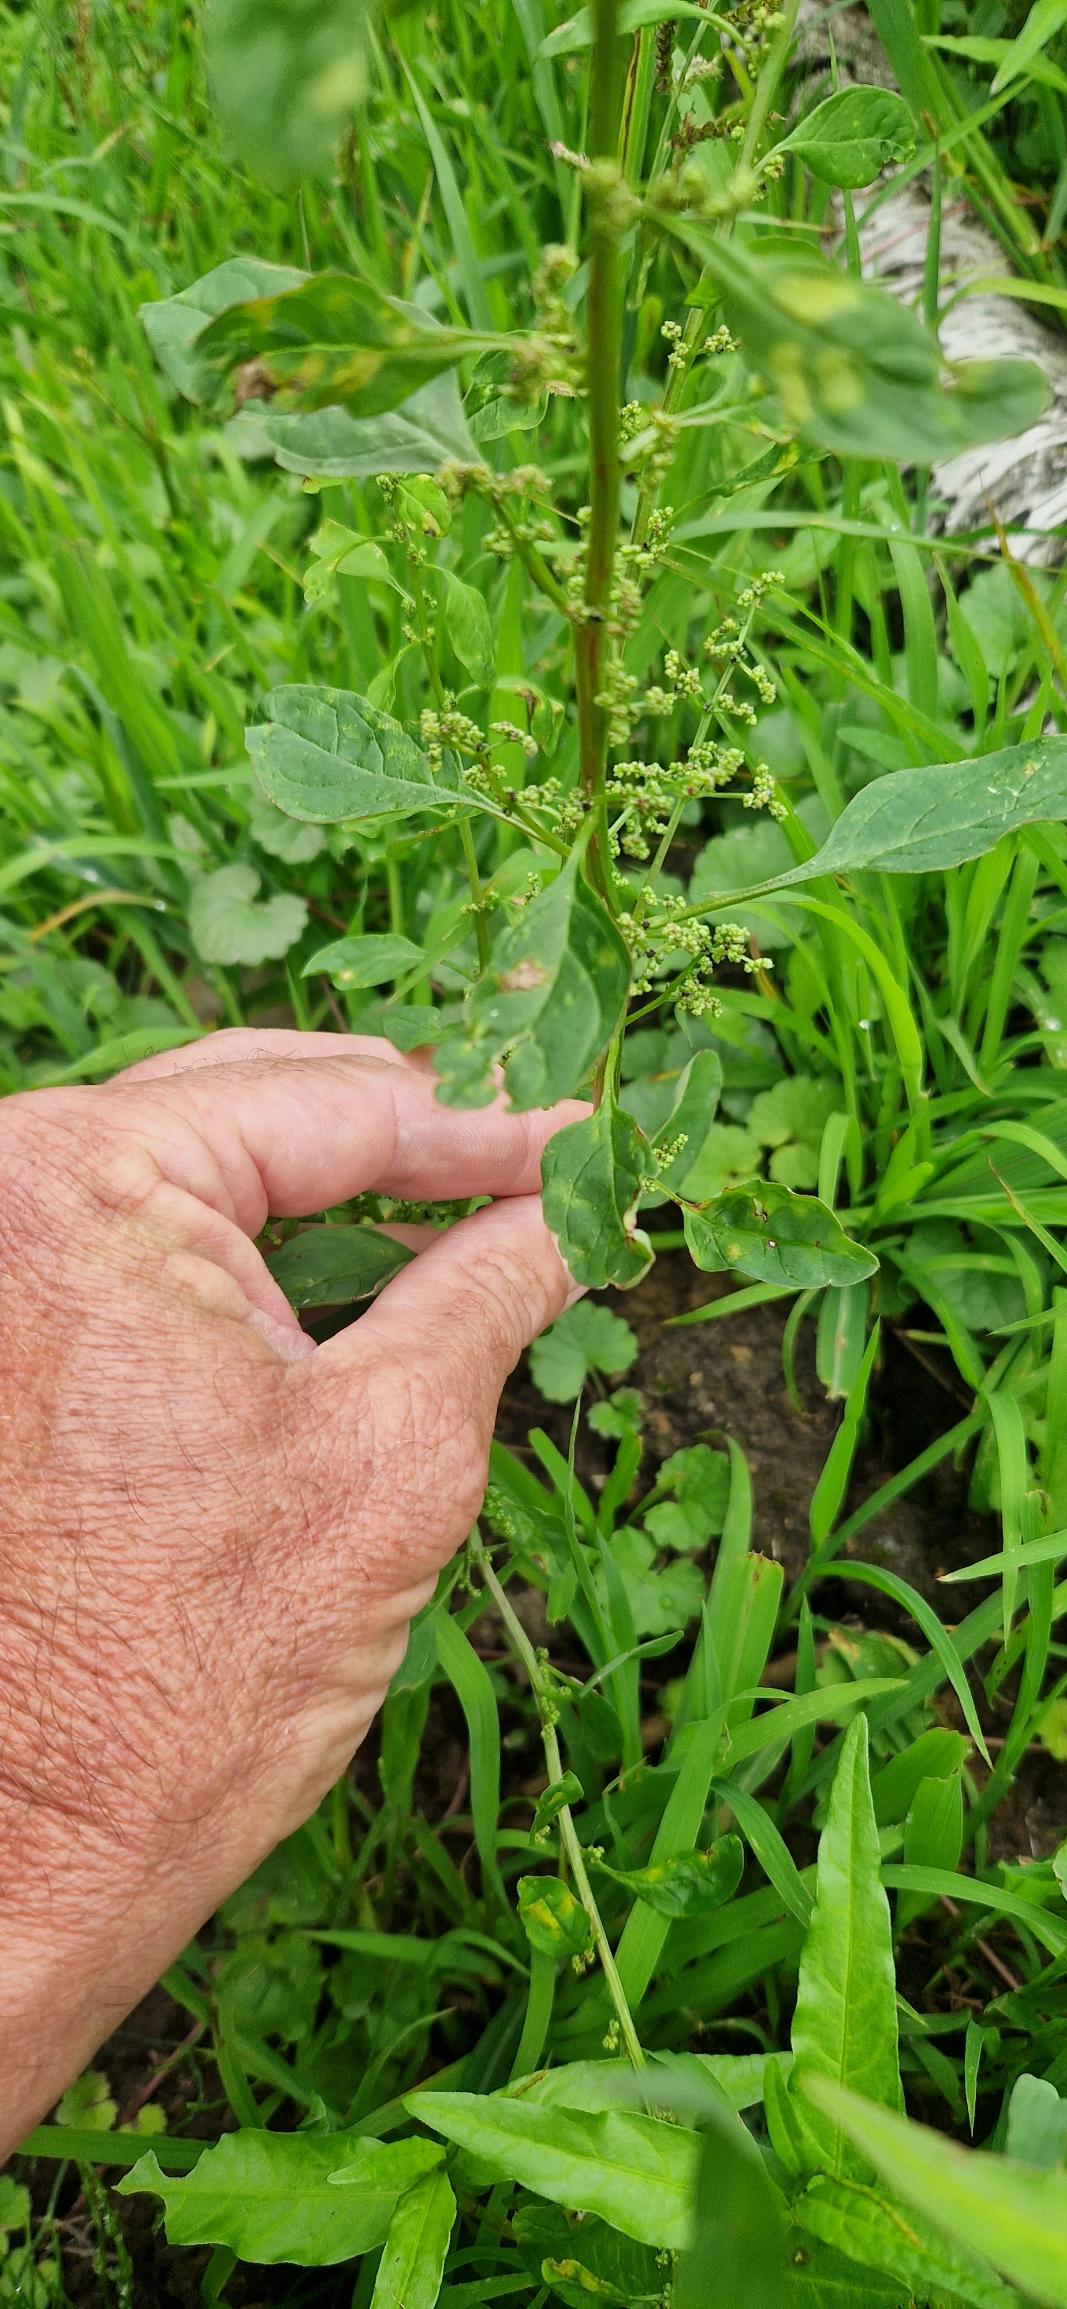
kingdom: Plantae
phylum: Tracheophyta
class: Magnoliopsida
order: Caryophyllales
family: Amaranthaceae
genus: Lipandra
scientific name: Lipandra polysperma
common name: Mangefrøet gåsefod
